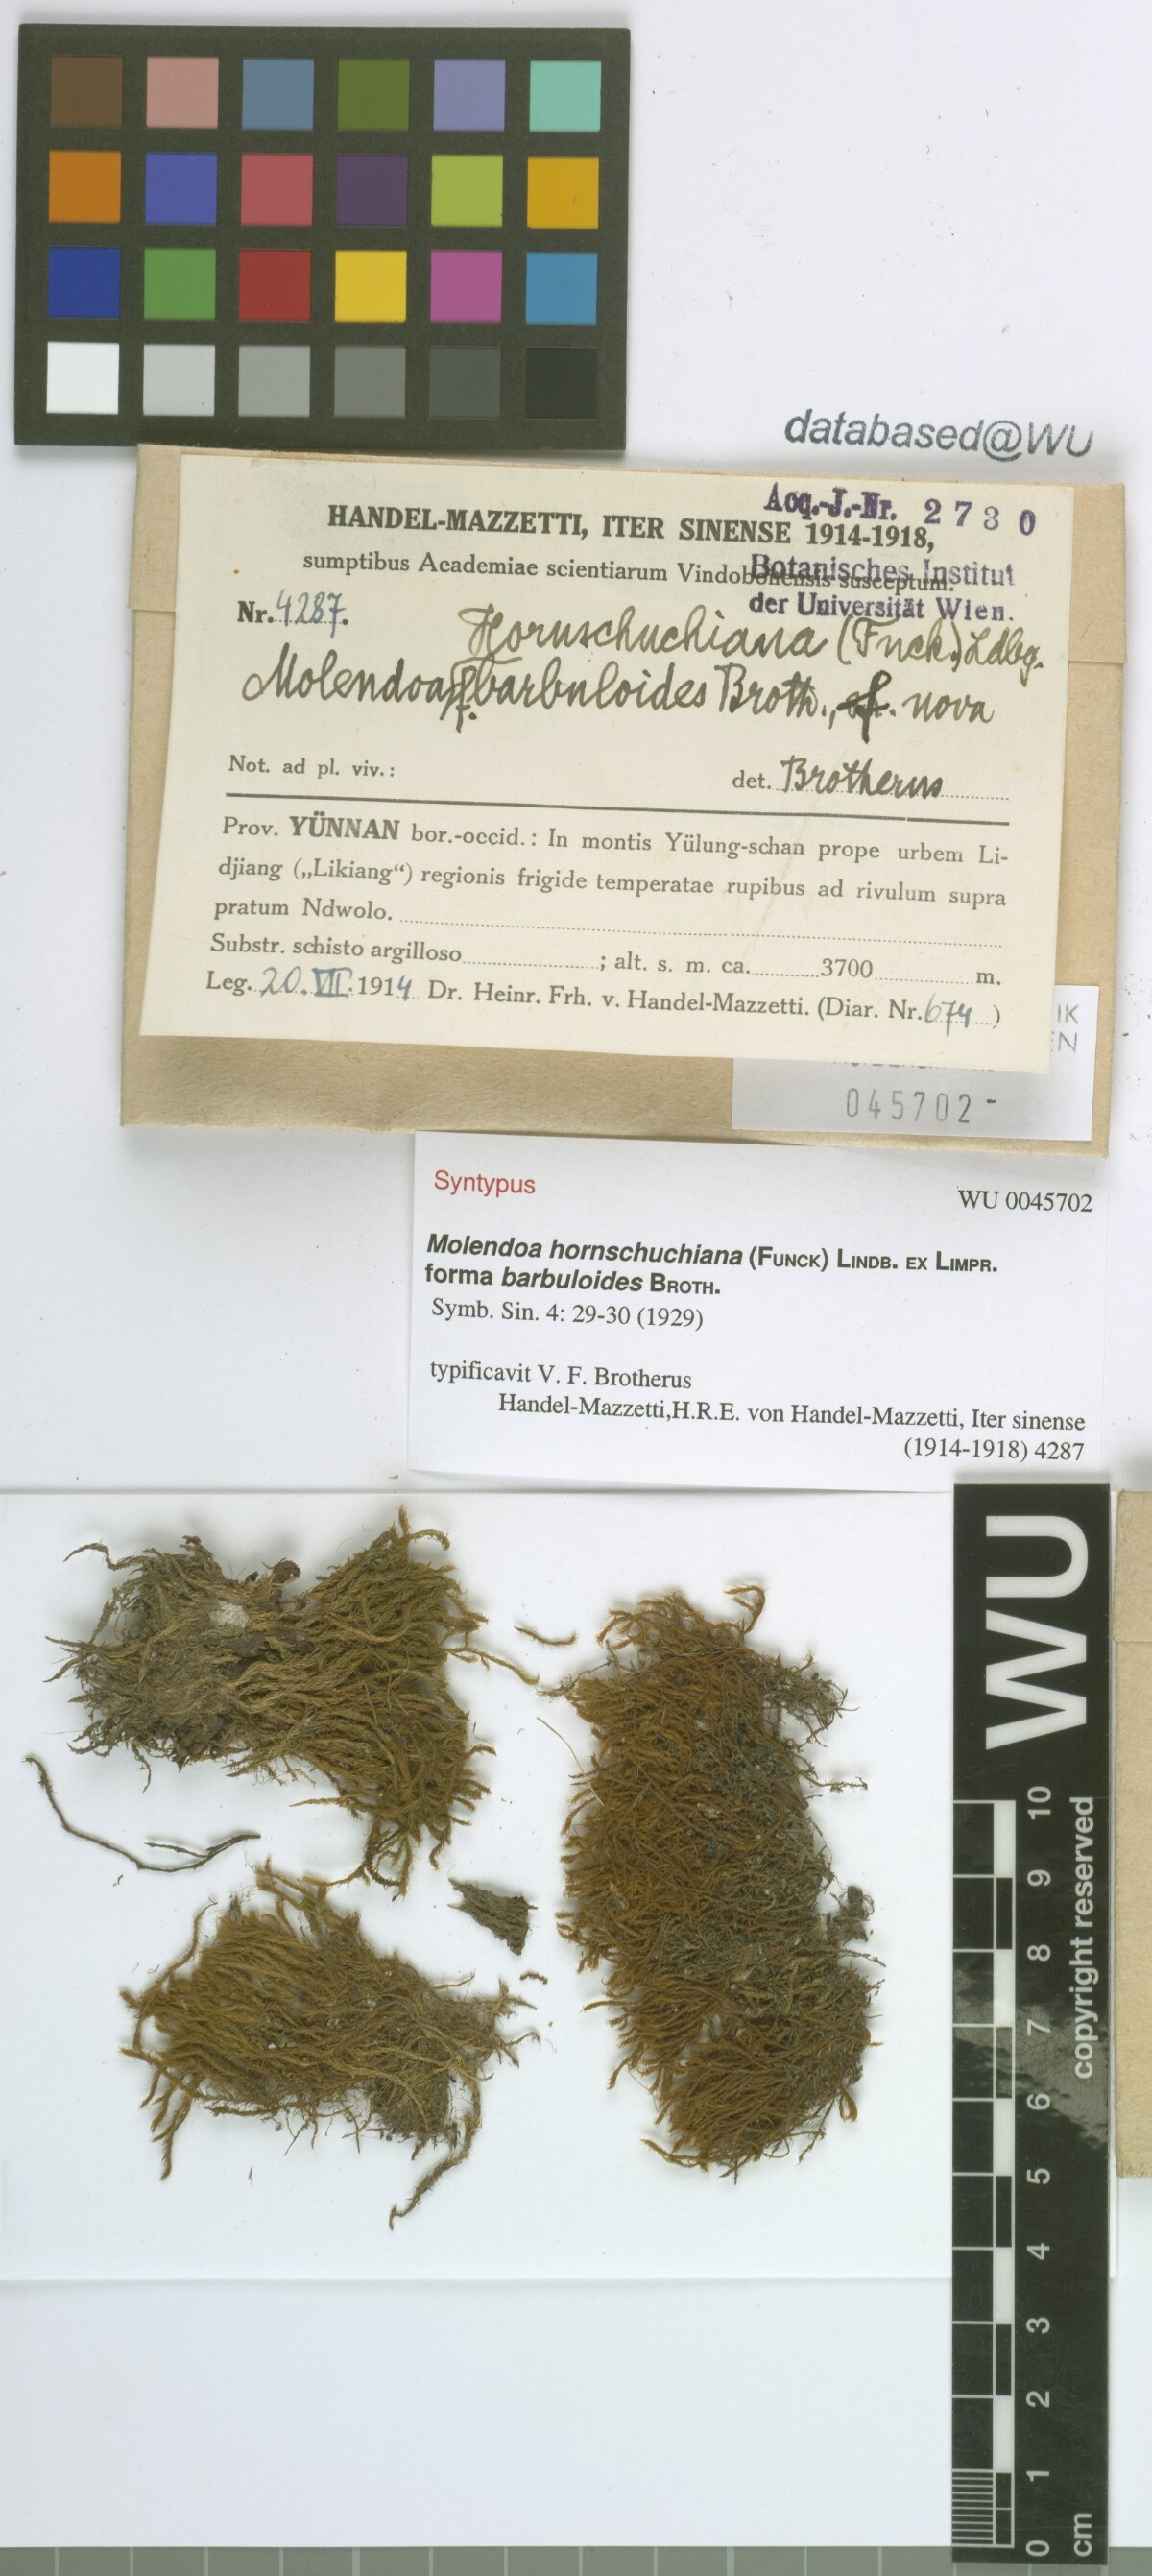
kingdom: Plantae
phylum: Bryophyta
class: Bryopsida
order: Pottiales
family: Pottiaceae
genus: Molendoa
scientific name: Molendoa hornschuchiana
